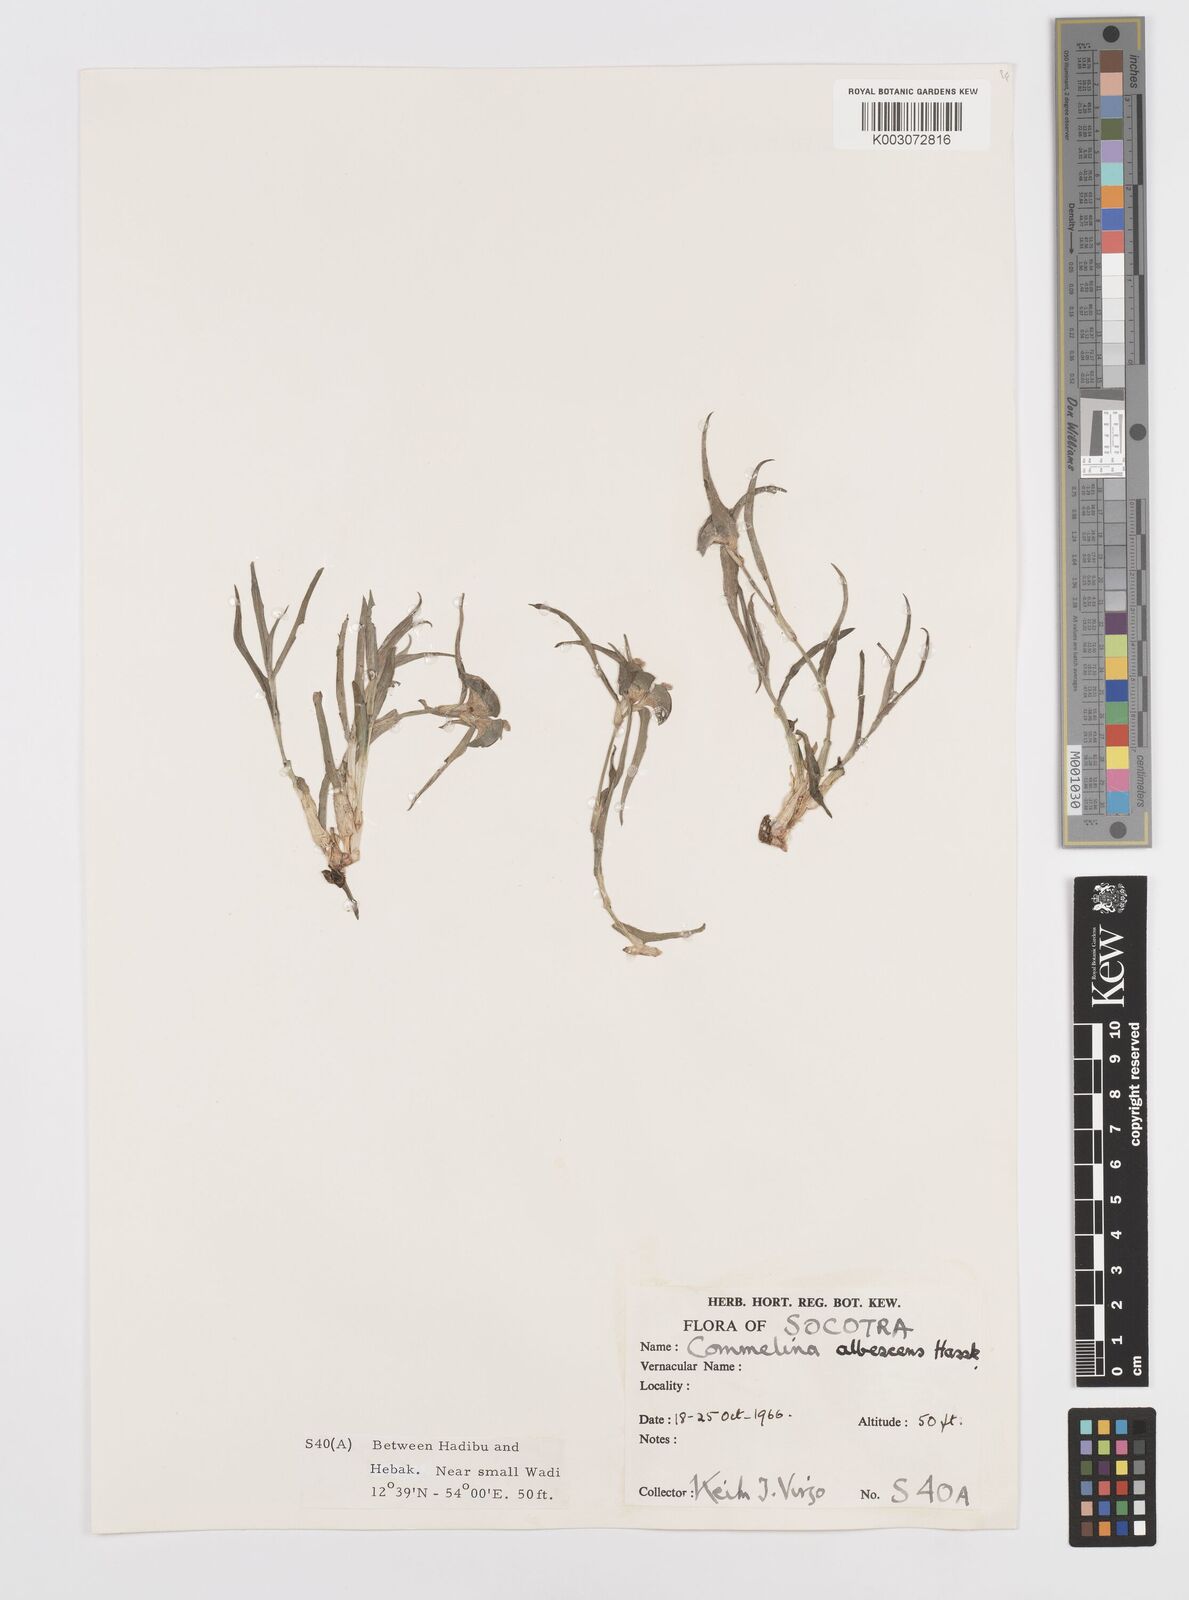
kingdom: Plantae
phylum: Tracheophyta
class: Liliopsida
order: Commelinales
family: Commelinaceae
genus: Commelina
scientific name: Commelina albescens
